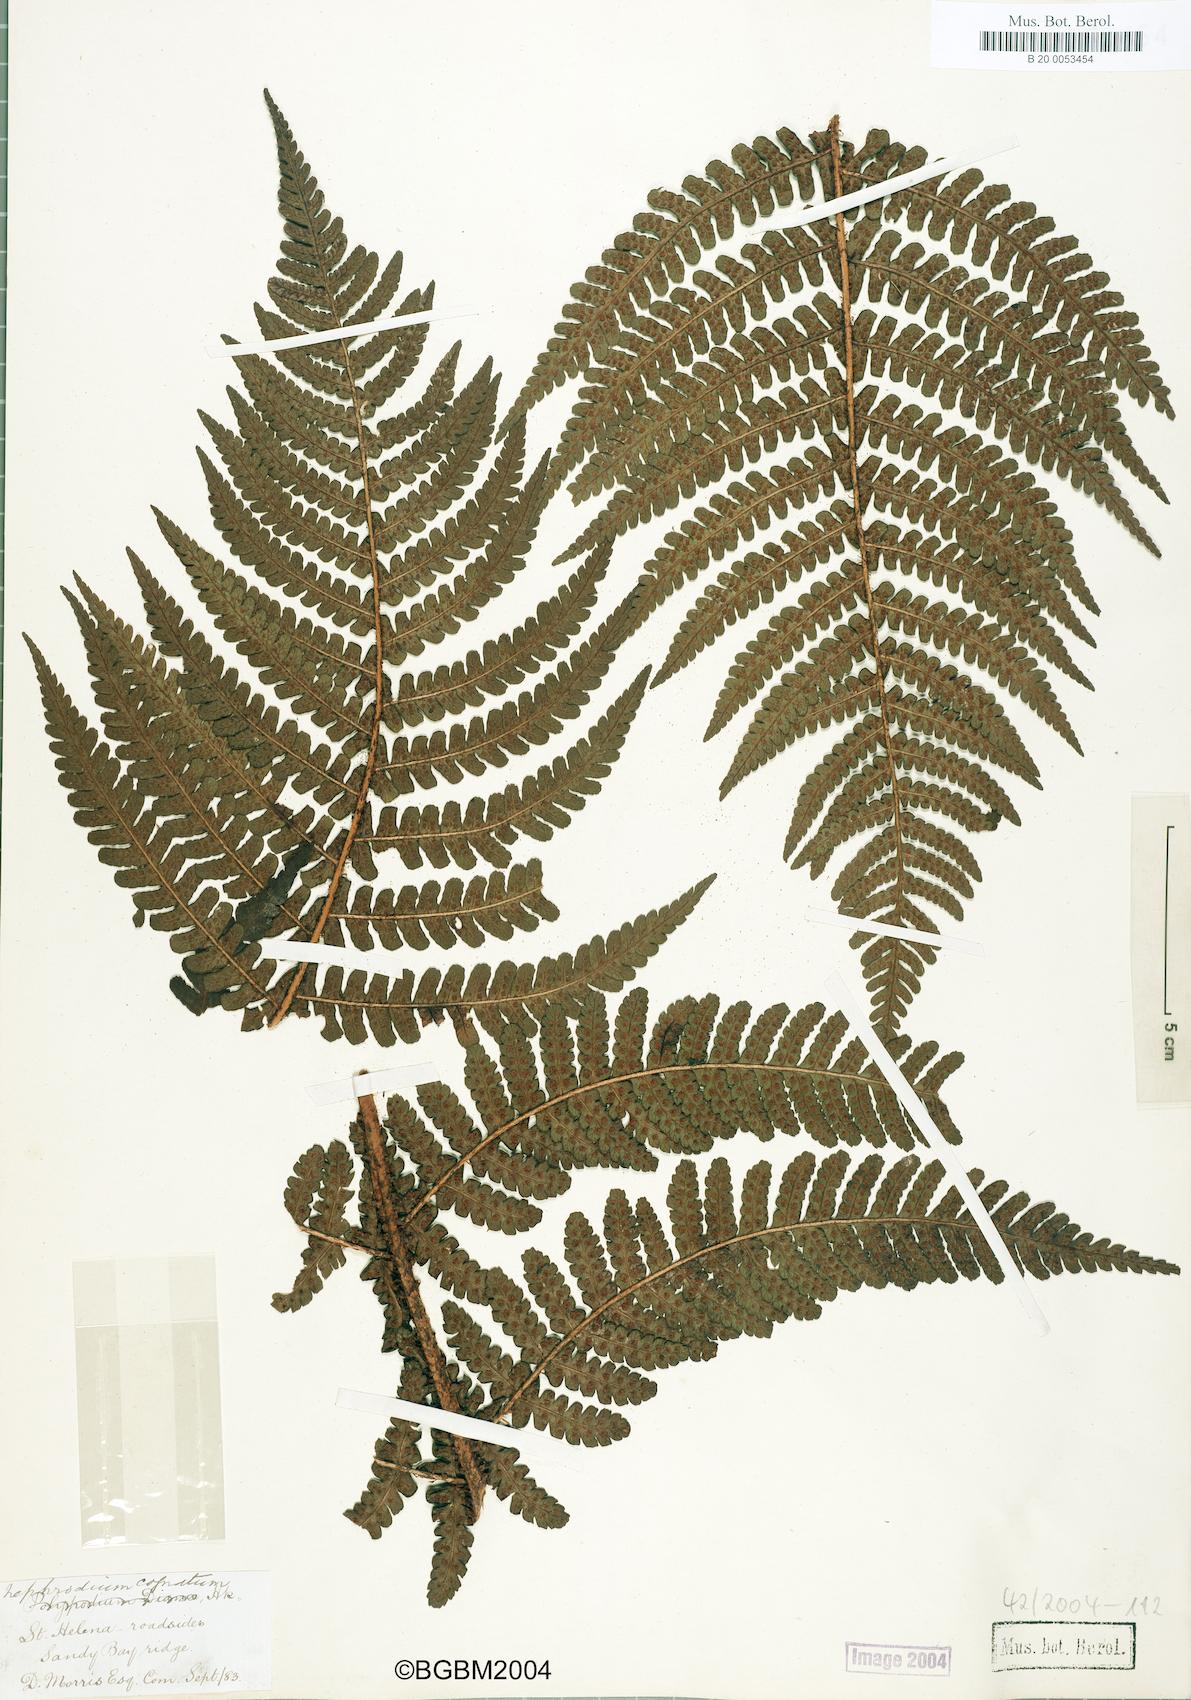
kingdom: Plantae
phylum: Tracheophyta
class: Polypodiopsida
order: Polypodiales
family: Dryopteridaceae
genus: Dryopteris
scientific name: Dryopteris cognata
